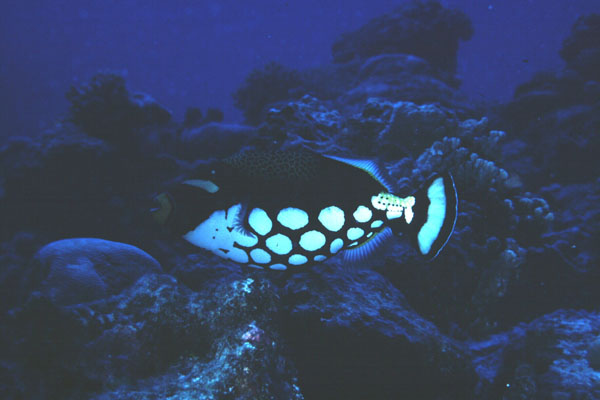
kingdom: Animalia
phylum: Chordata
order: Tetraodontiformes
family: Balistidae
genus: Balistoides
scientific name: Balistoides conspicillum
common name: Clown triggerfish
